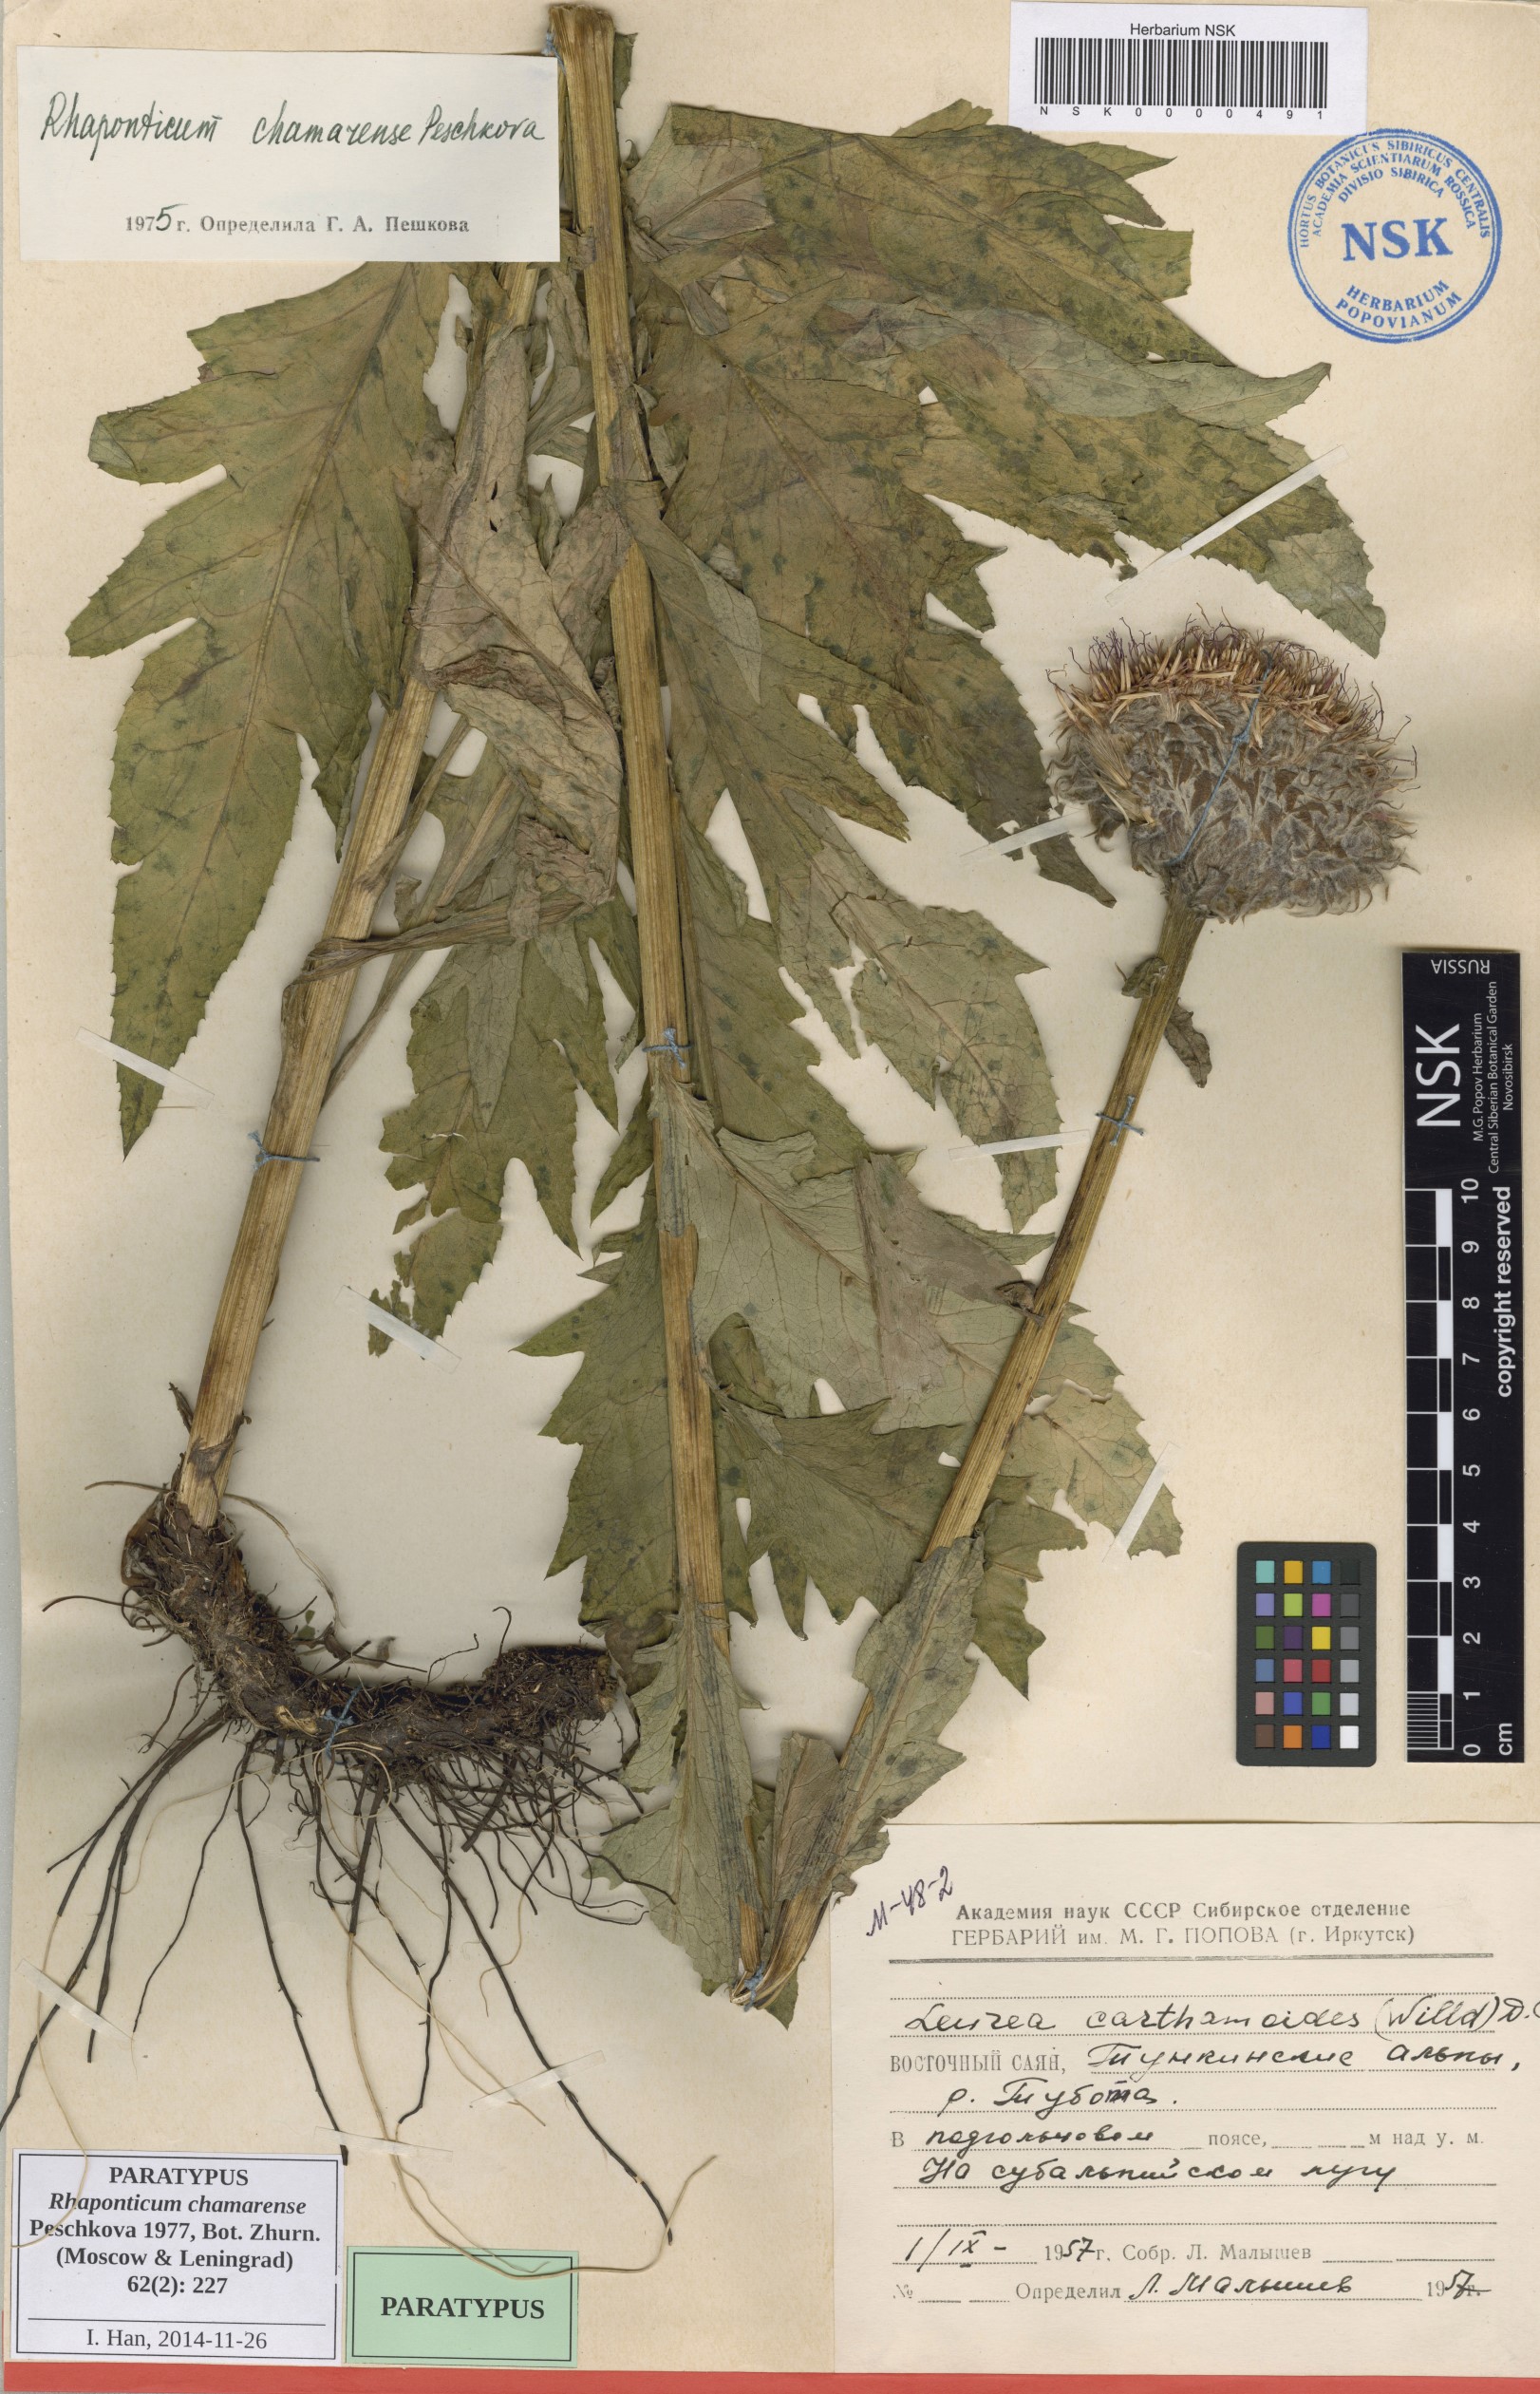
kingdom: Plantae
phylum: Tracheophyta
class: Magnoliopsida
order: Asterales
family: Asteraceae
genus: Leuzea
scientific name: Leuzea carthamoides
